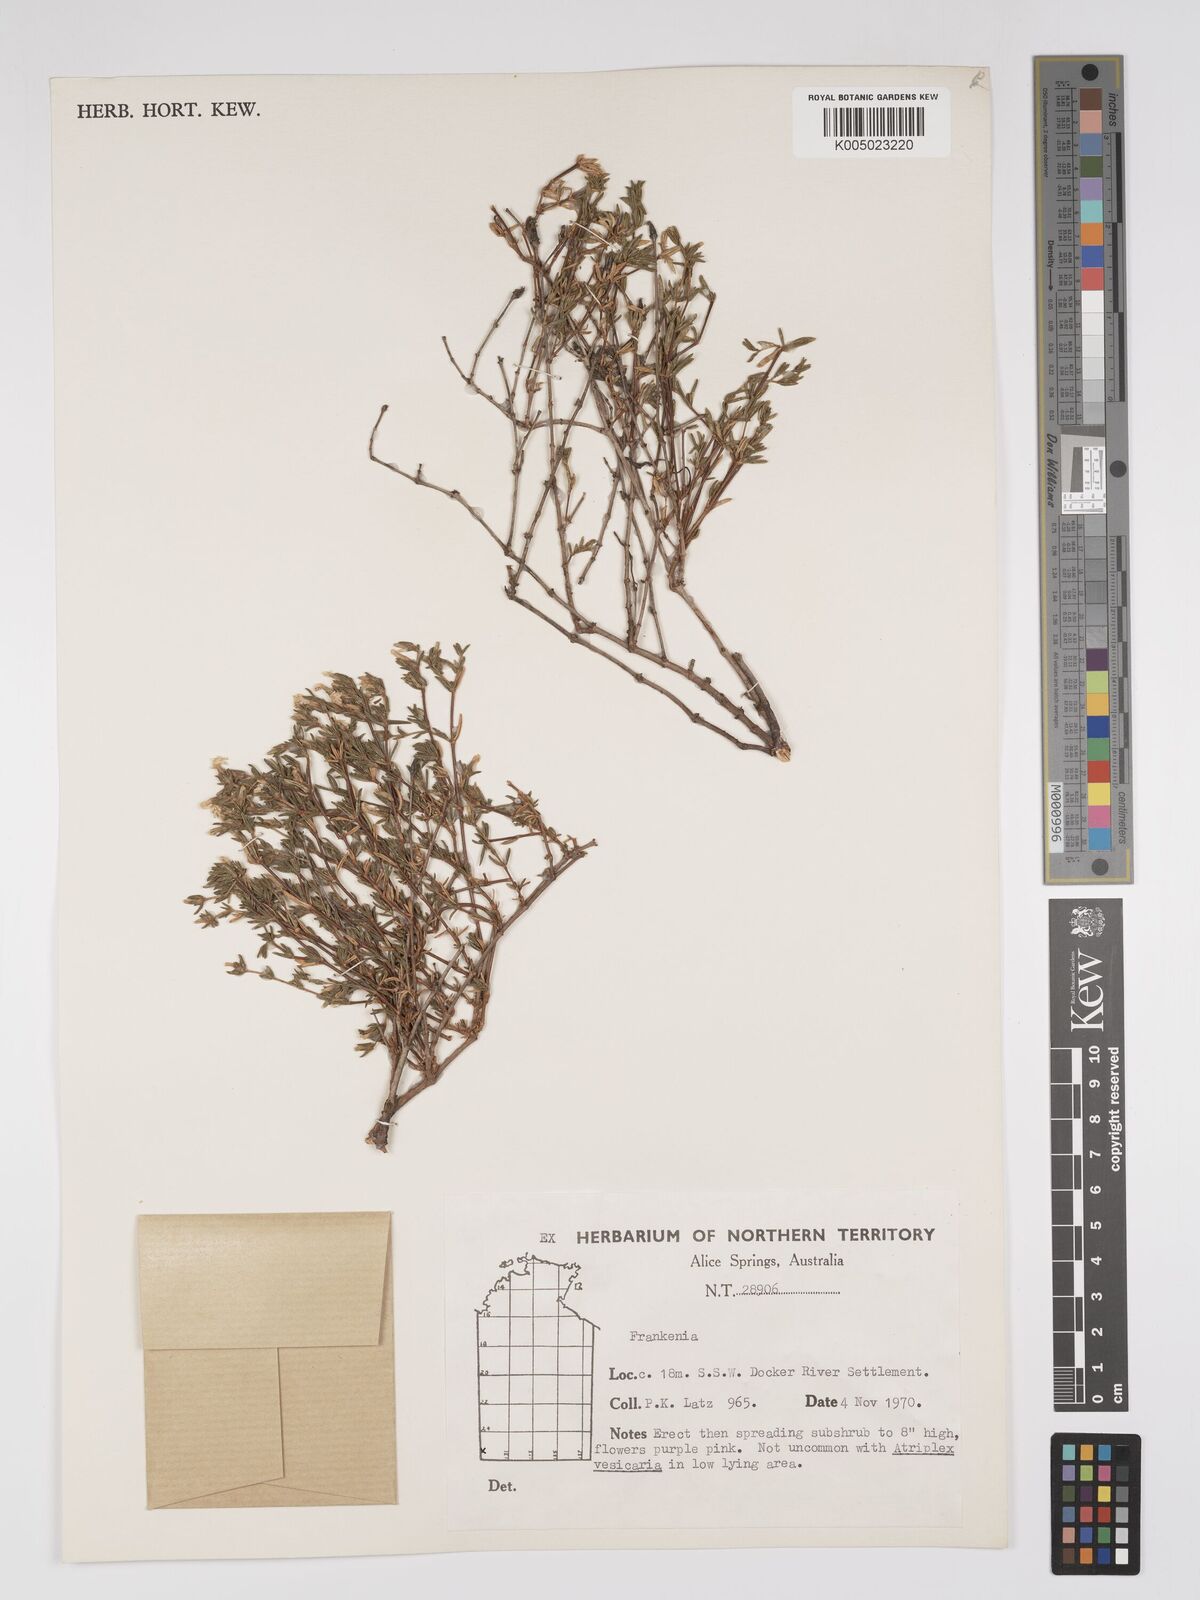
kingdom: Plantae
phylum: Tracheophyta
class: Magnoliopsida
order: Caryophyllales
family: Frankeniaceae
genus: Frankenia
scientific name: Frankenia
